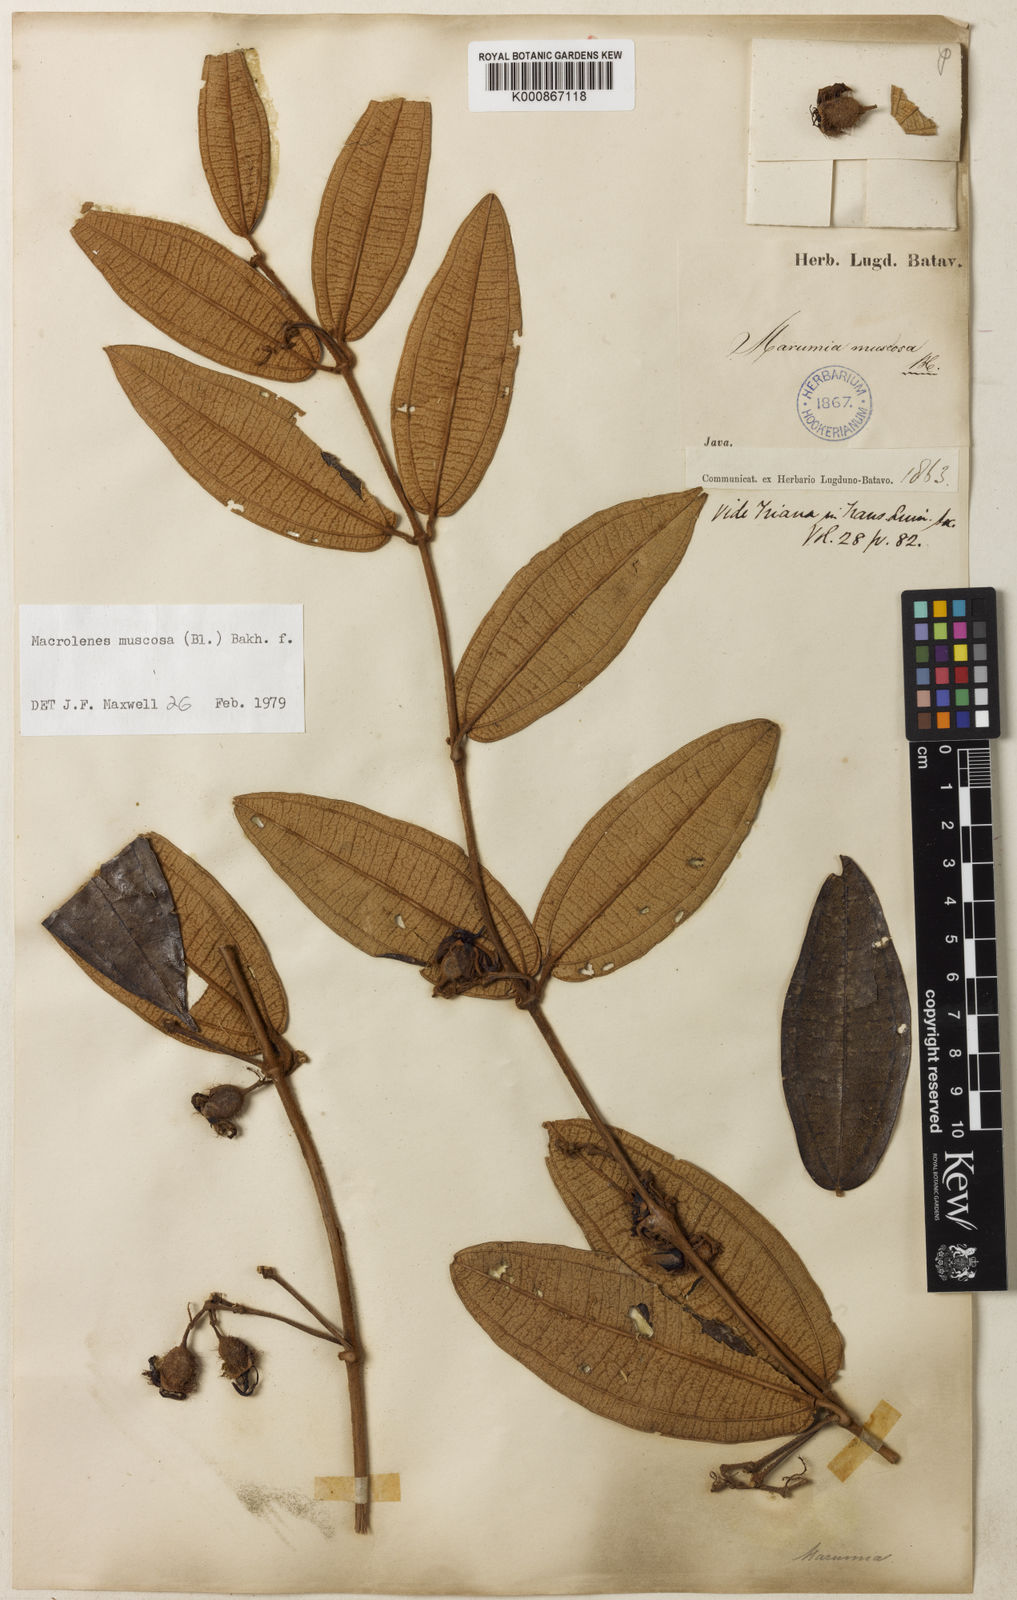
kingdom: Plantae
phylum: Tracheophyta
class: Magnoliopsida
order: Myrtales
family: Melastomataceae
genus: Macrolenes
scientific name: Macrolenes muscosa
